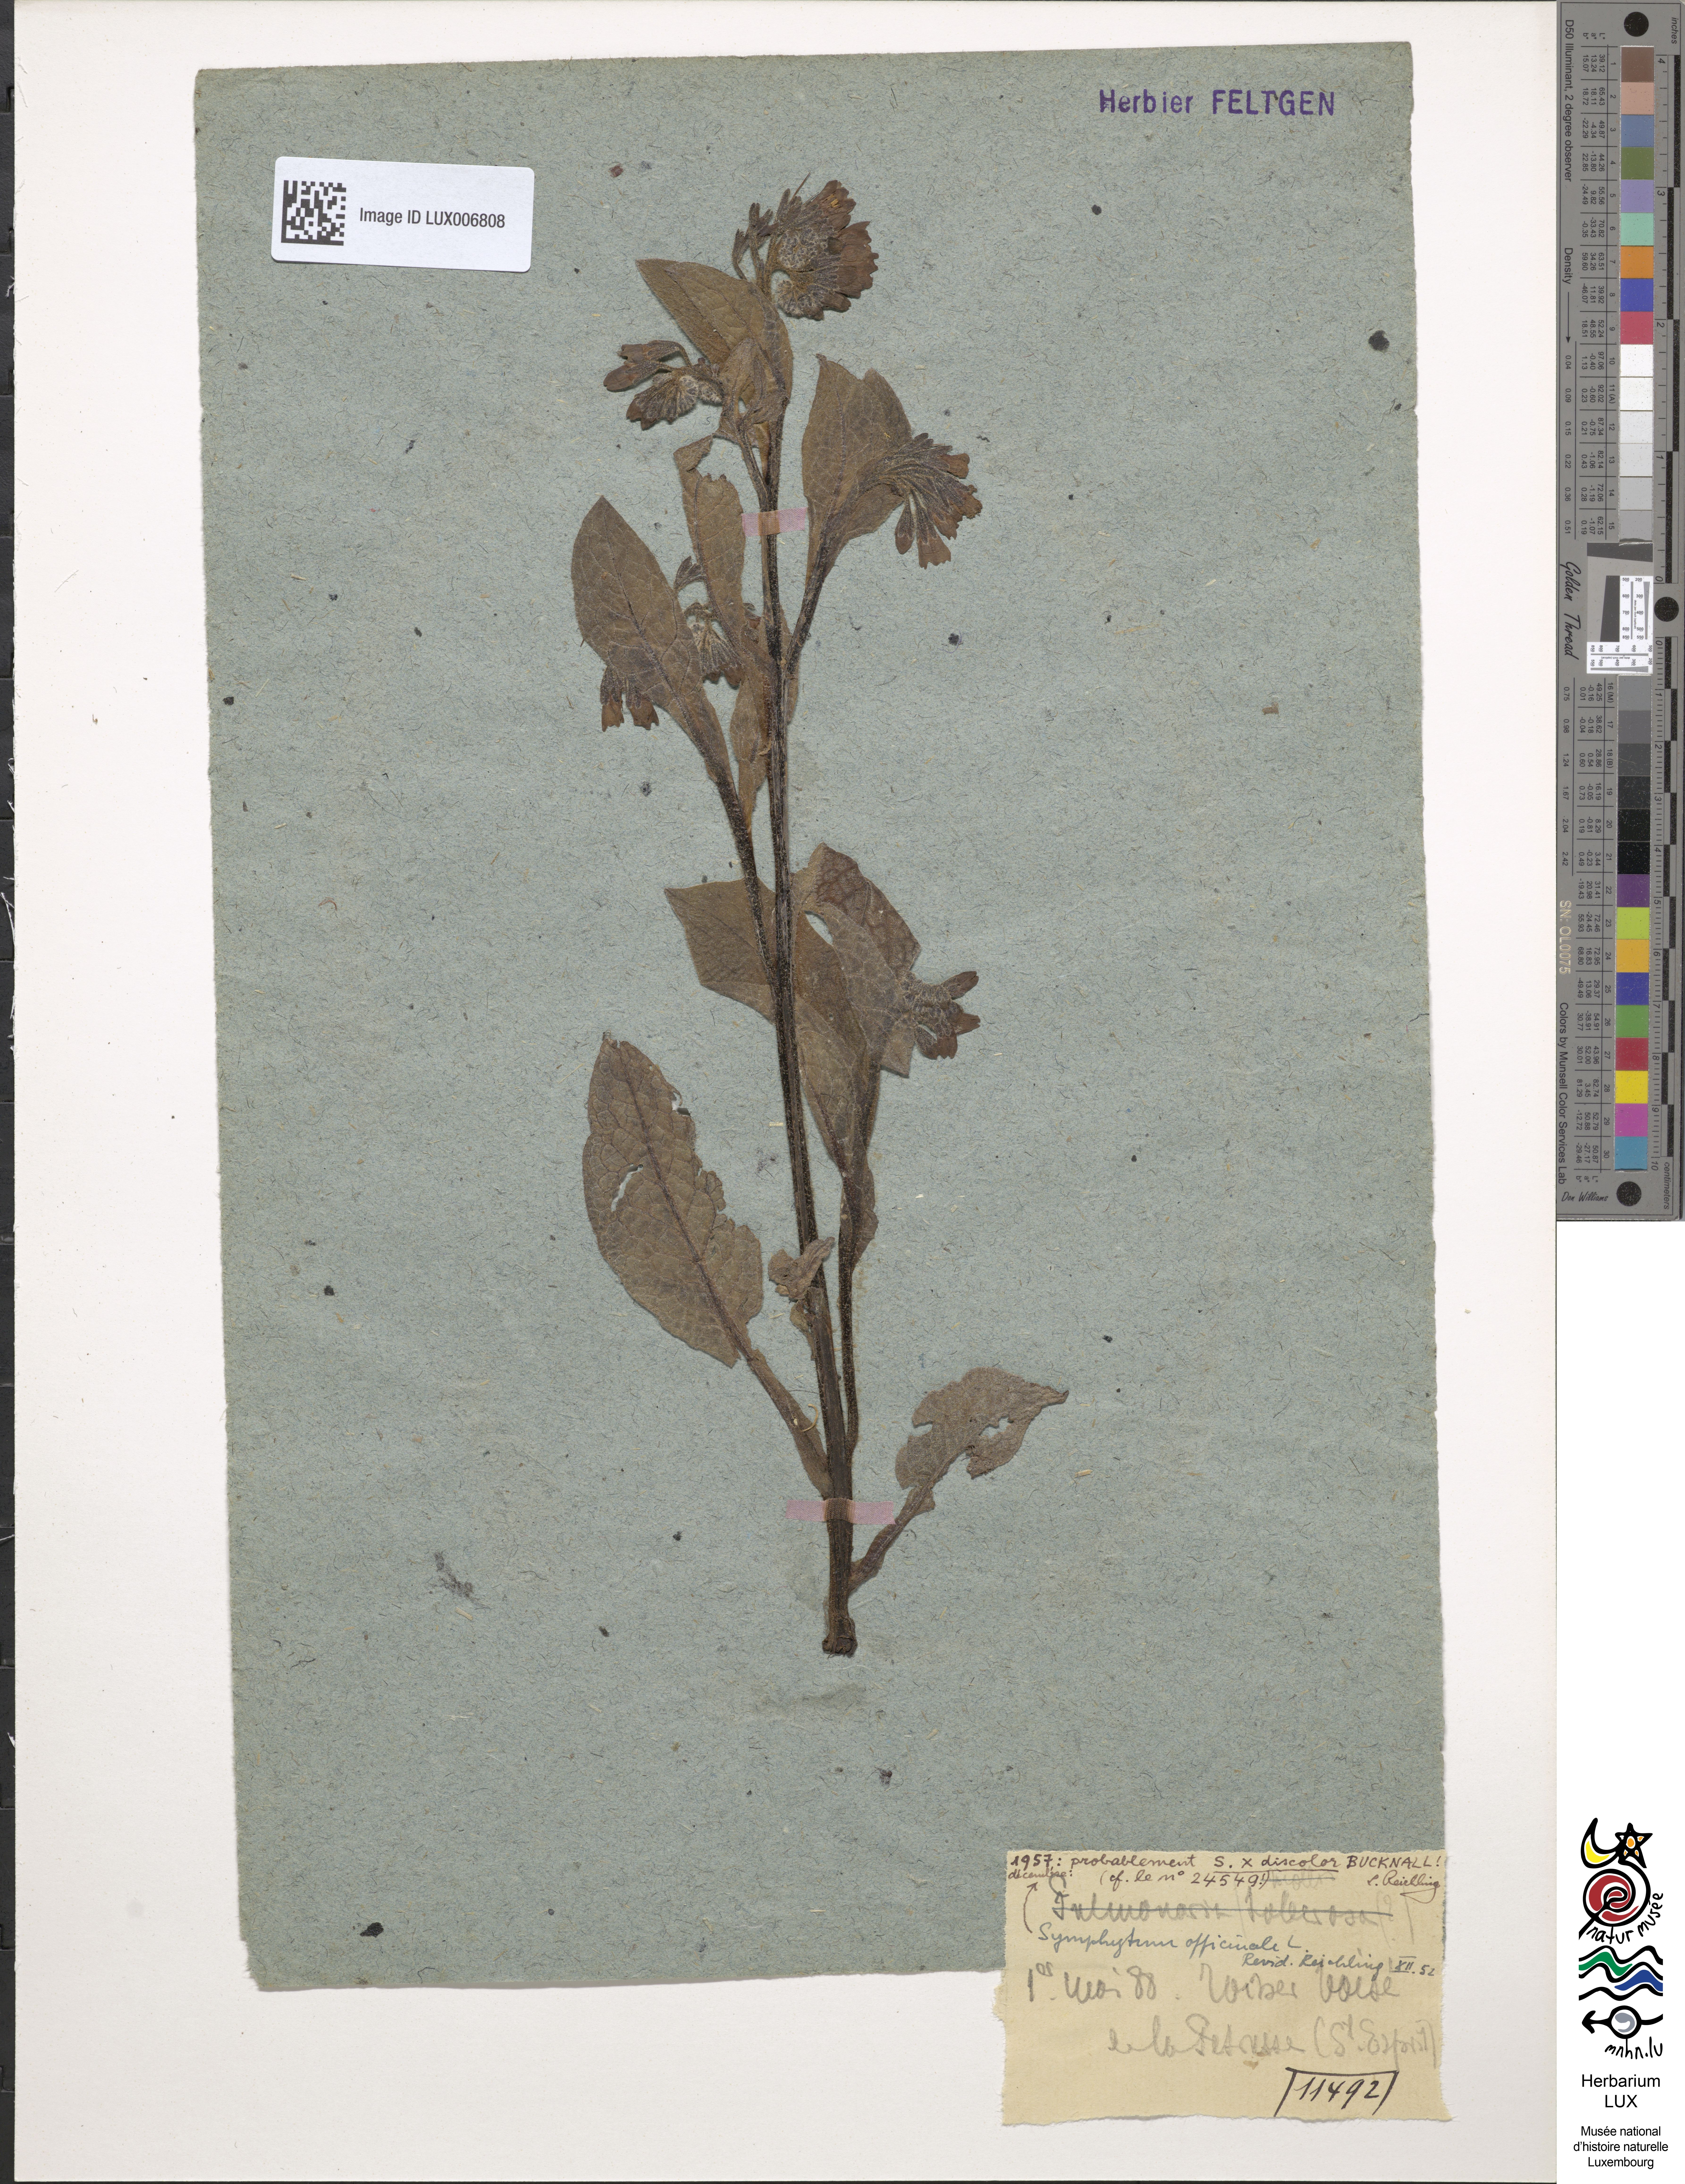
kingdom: Plantae
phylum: Tracheophyta
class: Magnoliopsida
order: Boraginales
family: Boraginaceae
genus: Symphytum
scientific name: Symphytum officinale
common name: Common comfrey
